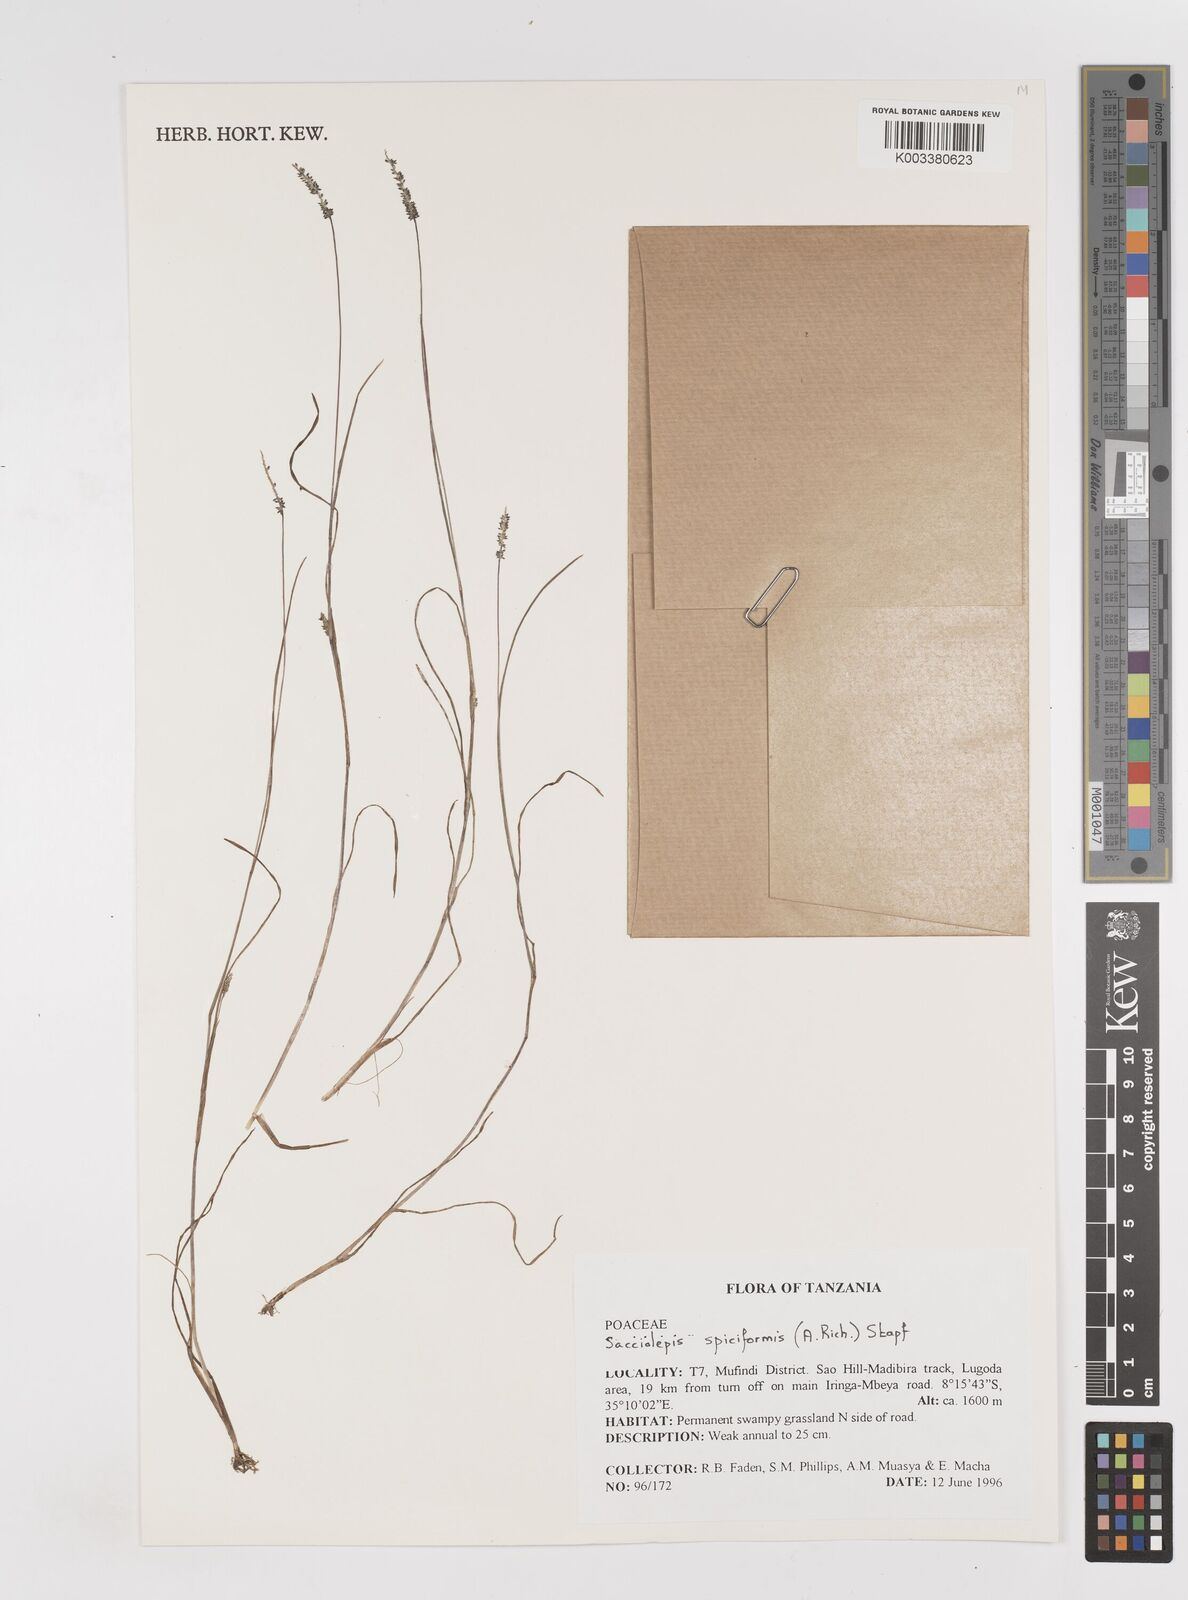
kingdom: Plantae
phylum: Tracheophyta
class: Liliopsida
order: Poales
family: Poaceae
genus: Sacciolepis
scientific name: Sacciolepis myosuroides
